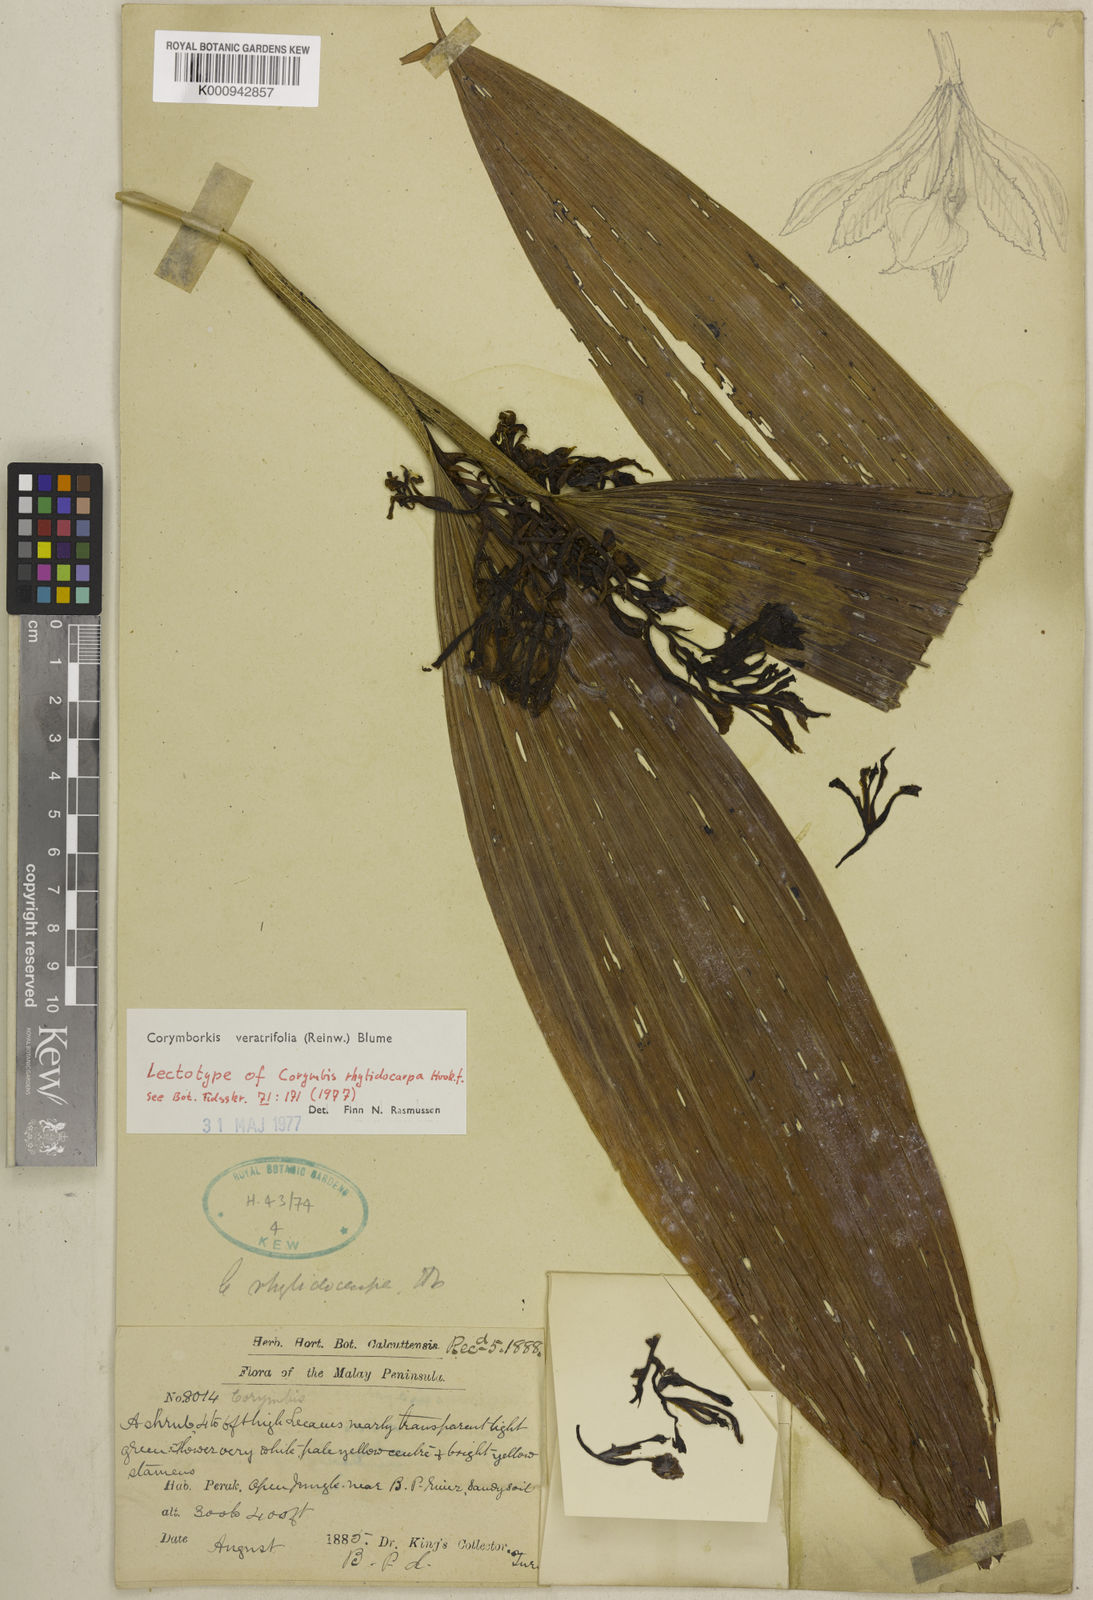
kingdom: Plantae
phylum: Tracheophyta
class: Liliopsida
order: Asparagales
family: Orchidaceae
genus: Corymborkis
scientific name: Corymborkis veratrifolia
